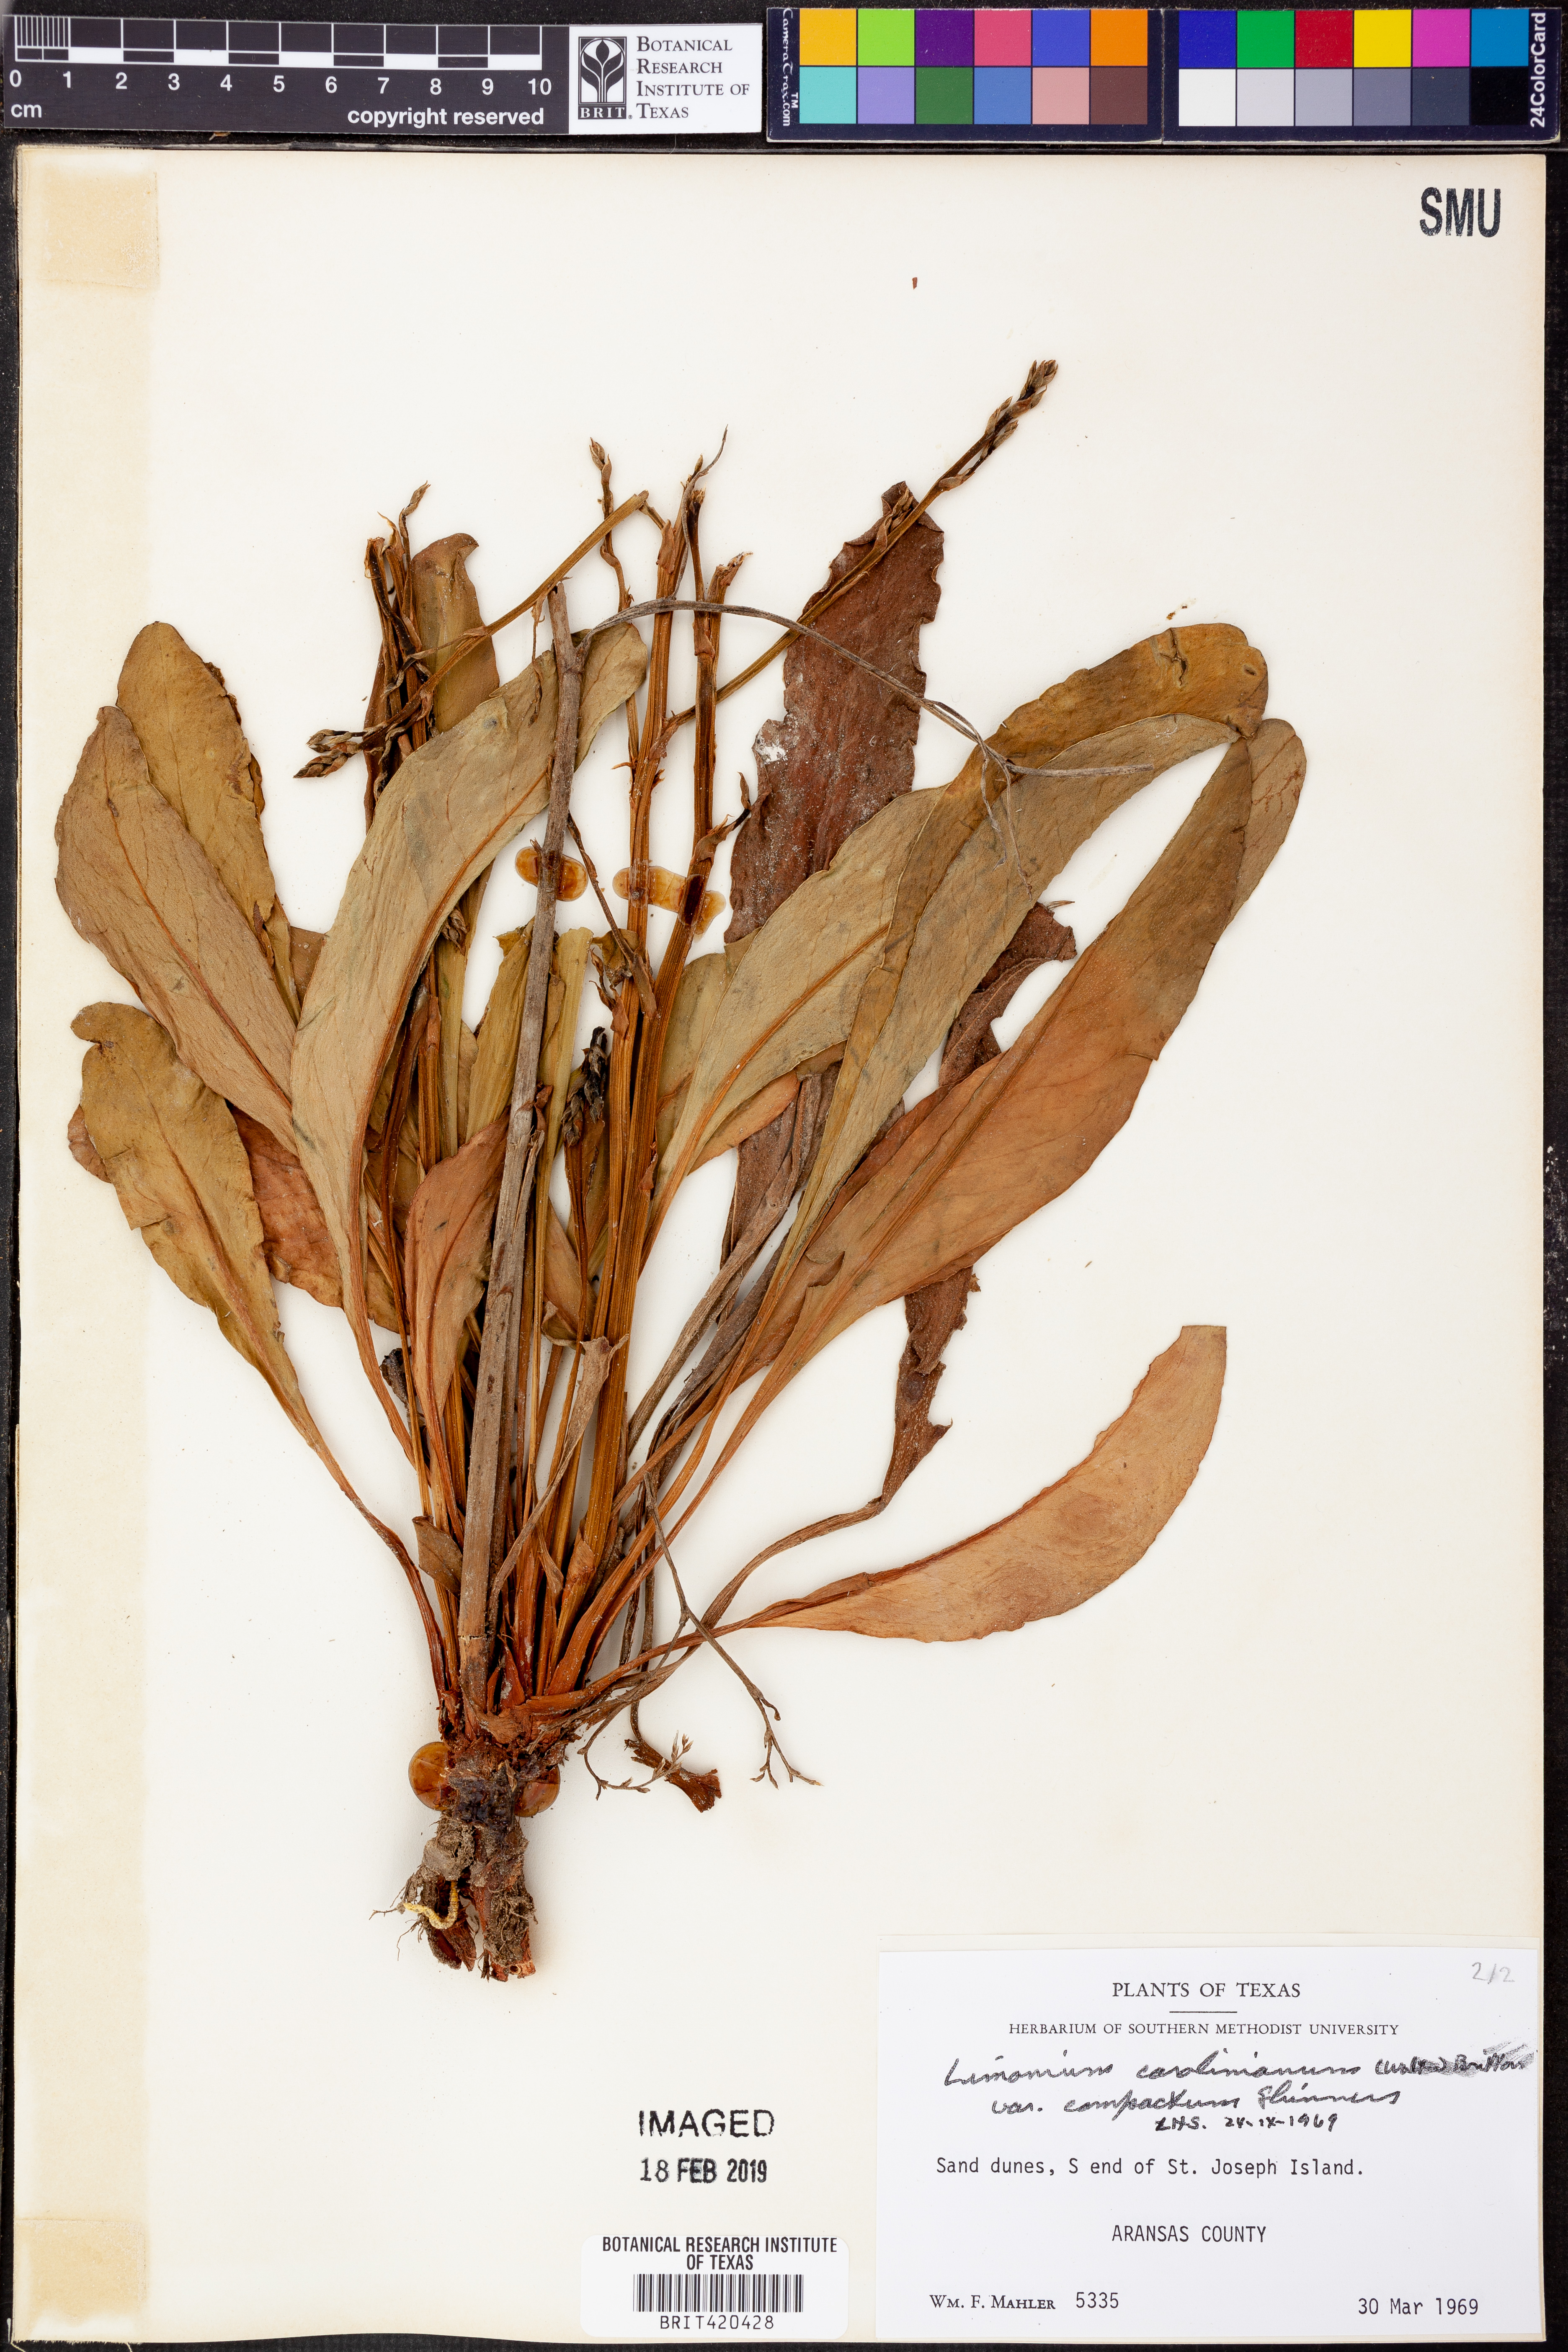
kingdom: Plantae
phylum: Tracheophyta
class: Magnoliopsida
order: Caryophyllales
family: Plumbaginaceae
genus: Limonium
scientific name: Limonium carolinianum
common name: Carolina sea lavender
